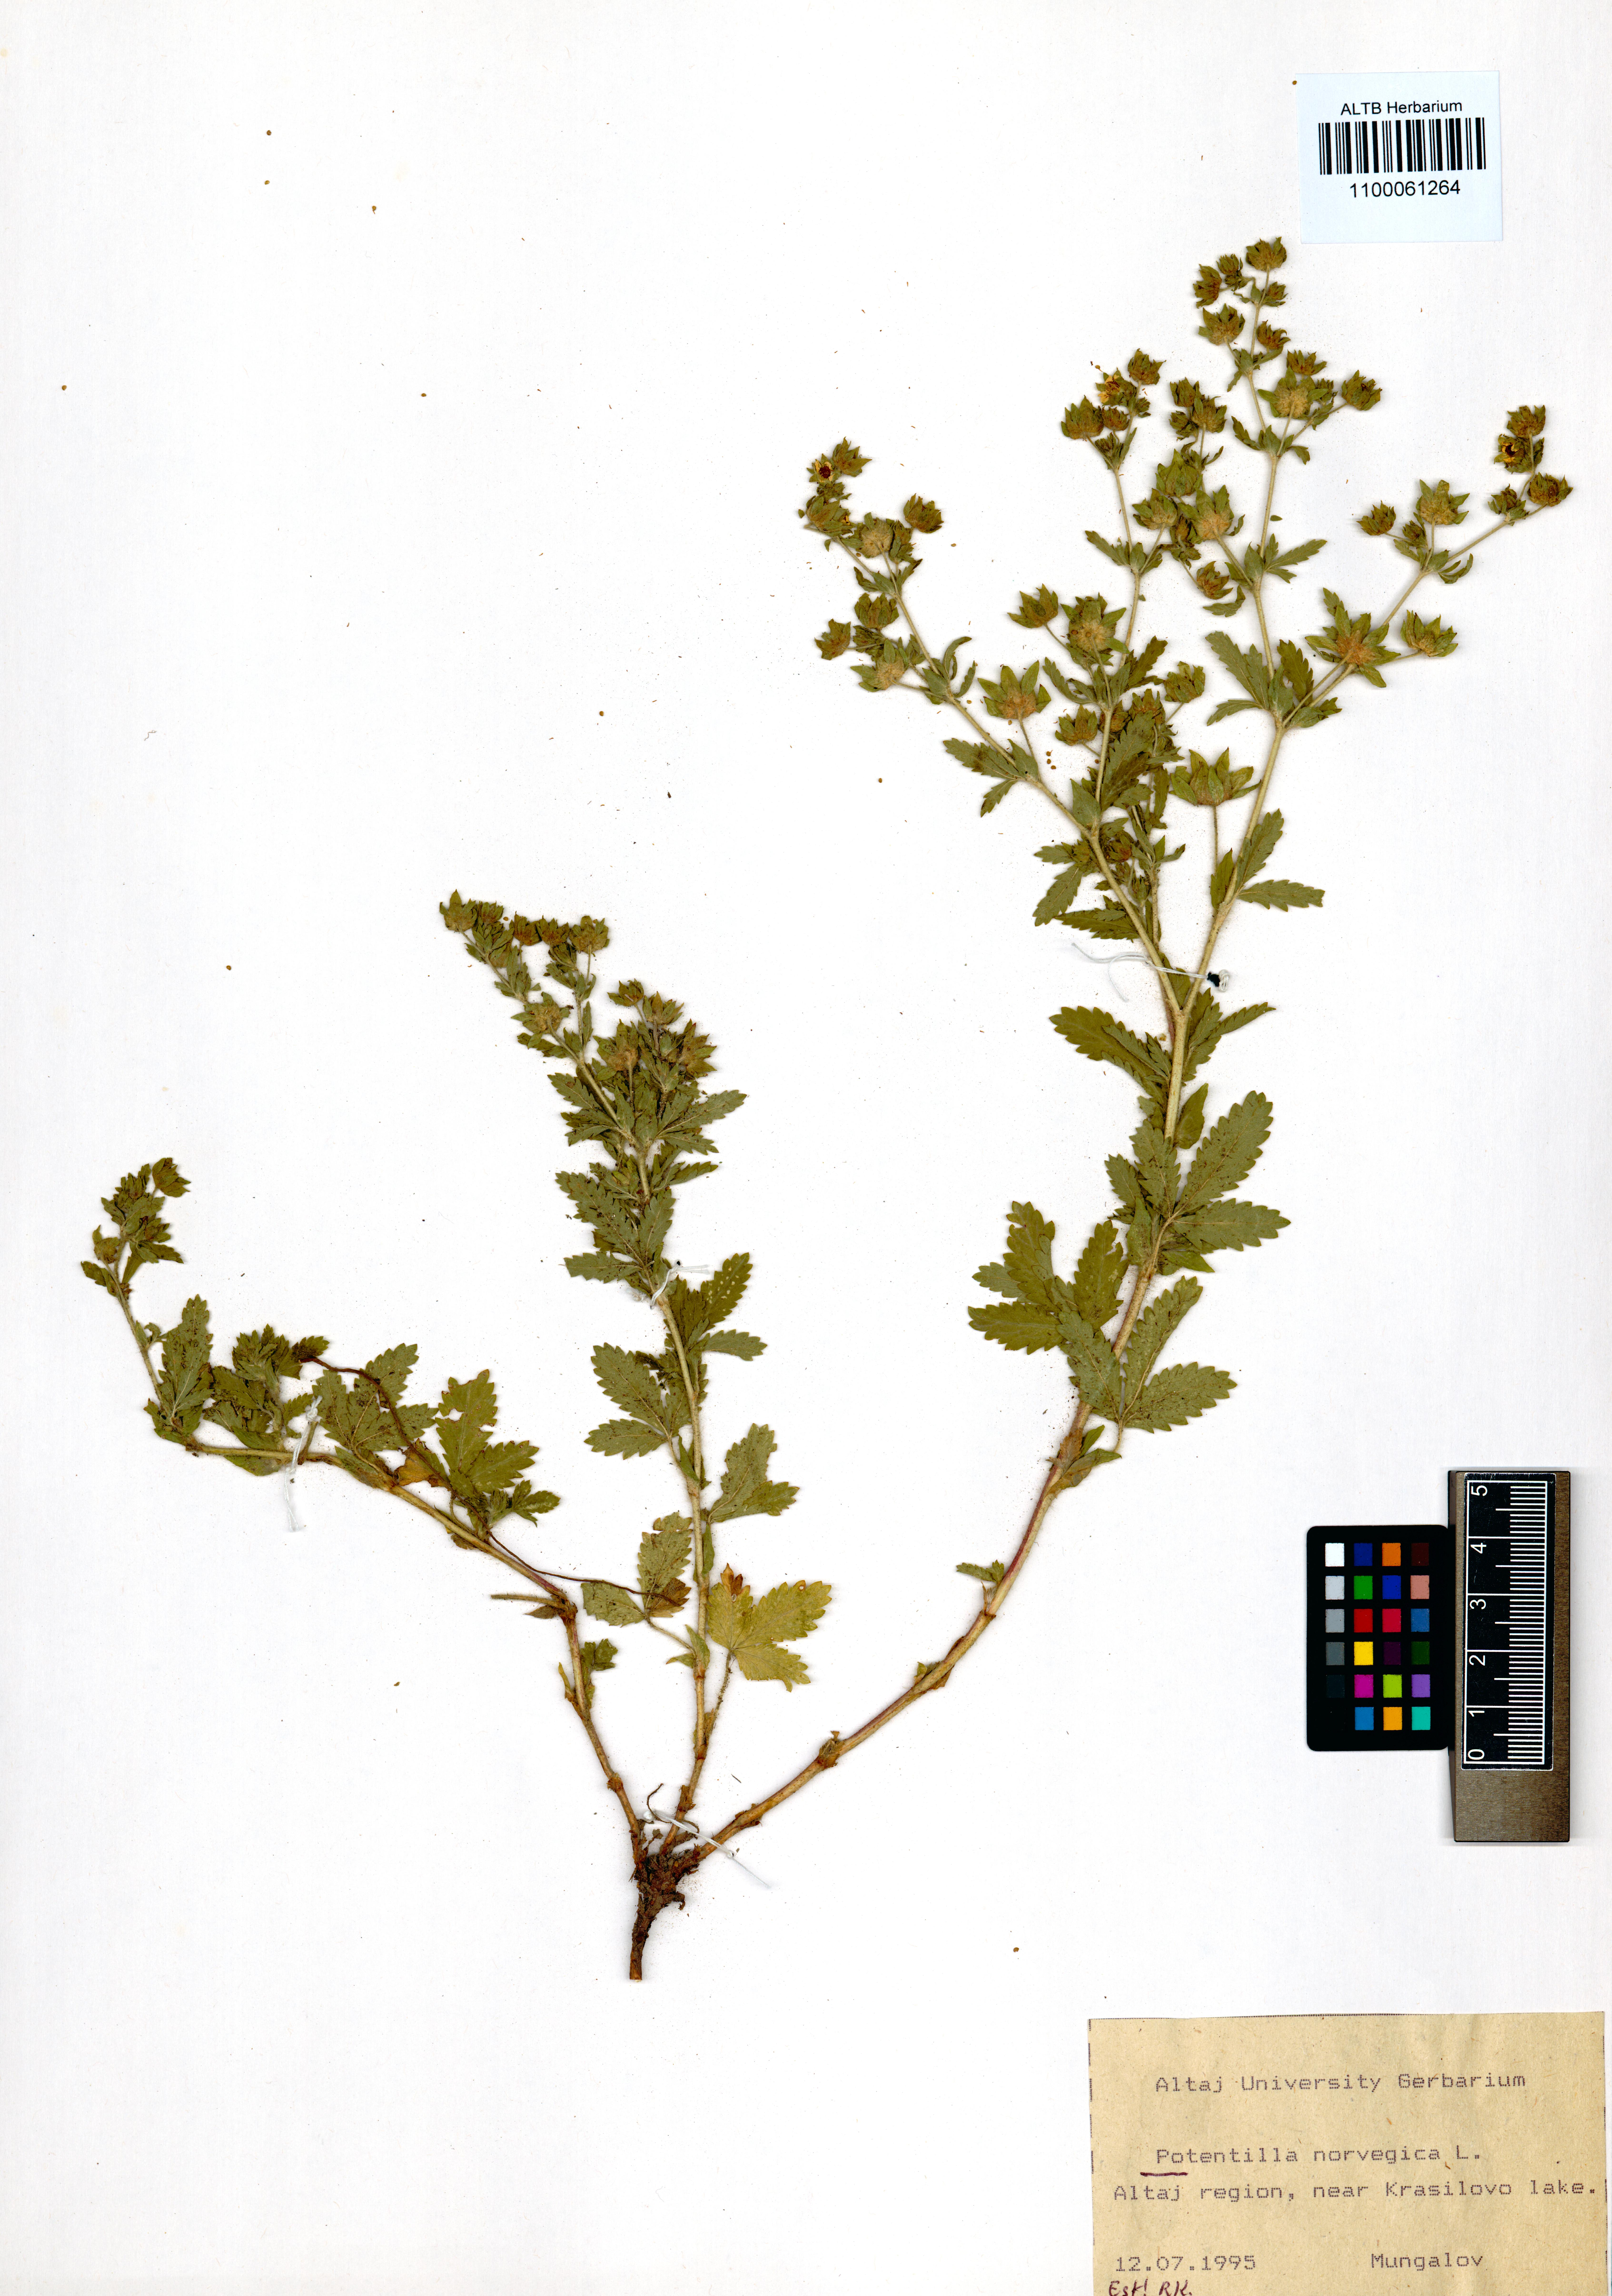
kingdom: Plantae
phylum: Tracheophyta
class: Magnoliopsida
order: Rosales
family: Rosaceae
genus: Potentilla
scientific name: Potentilla norvegica
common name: Ternate-leaved cinquefoil
